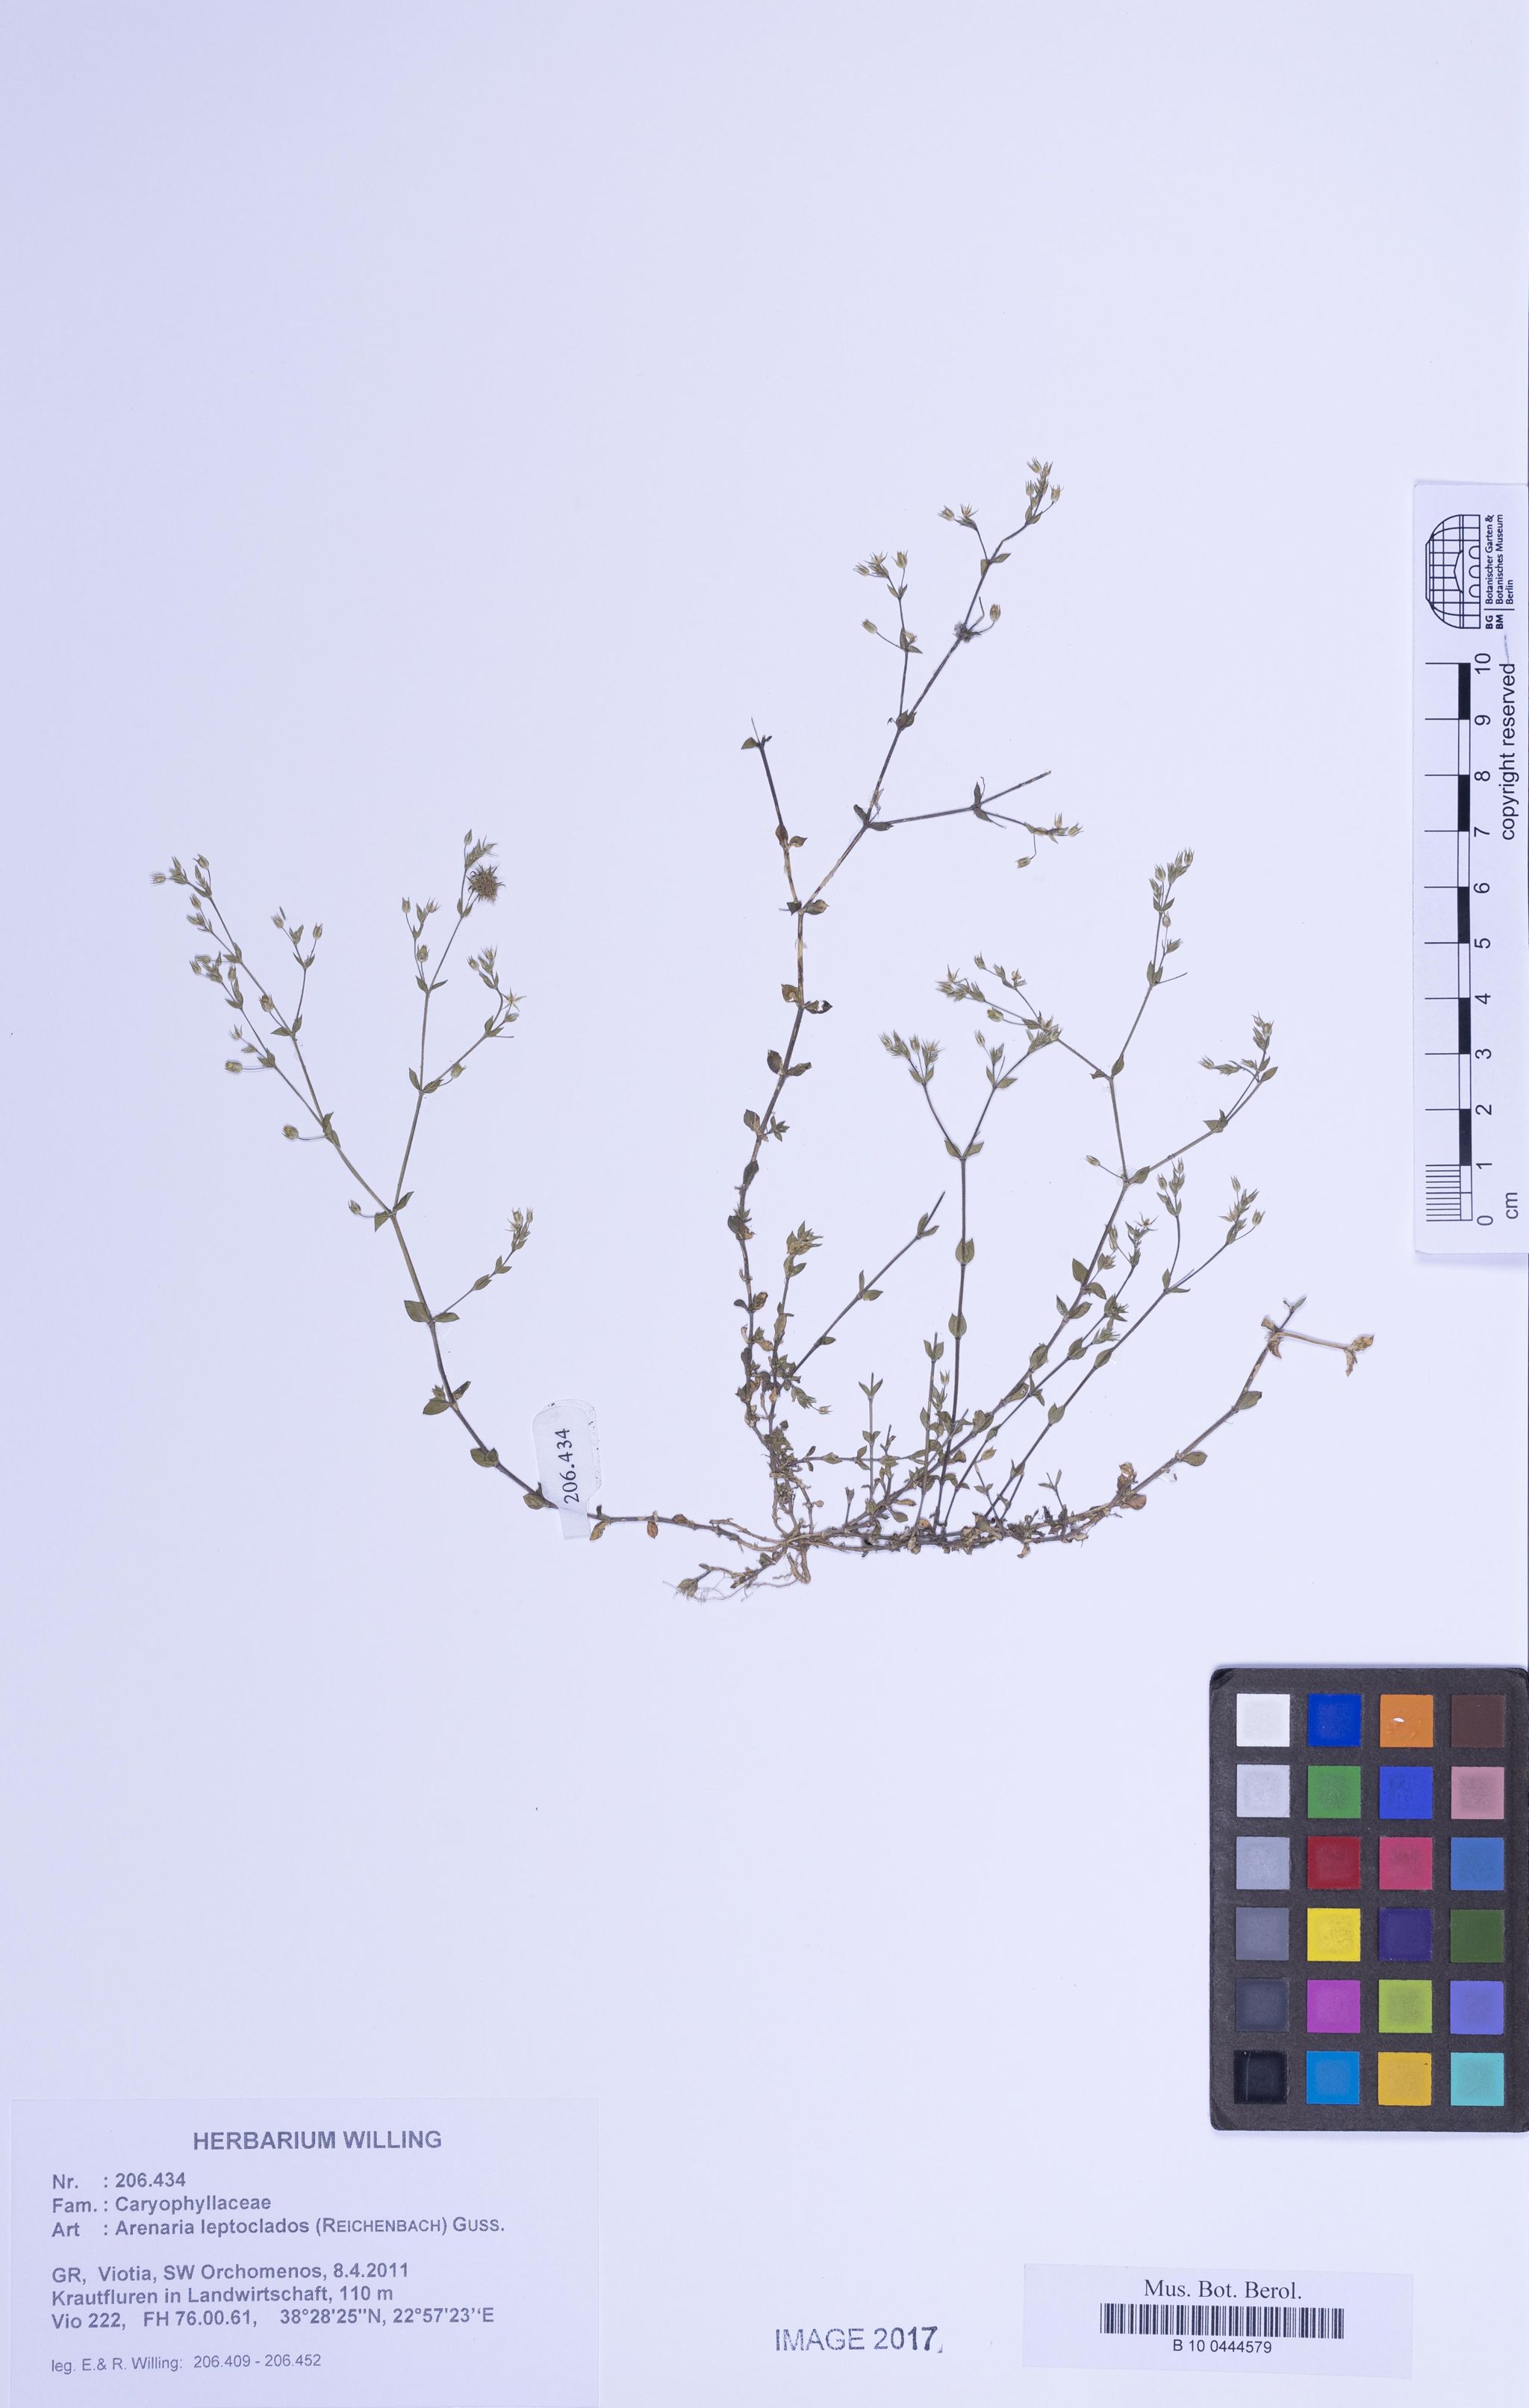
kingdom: Plantae
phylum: Tracheophyta
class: Magnoliopsida
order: Caryophyllales
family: Caryophyllaceae
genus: Arenaria
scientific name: Arenaria leptoclados
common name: Thyme-leaved sandwort
